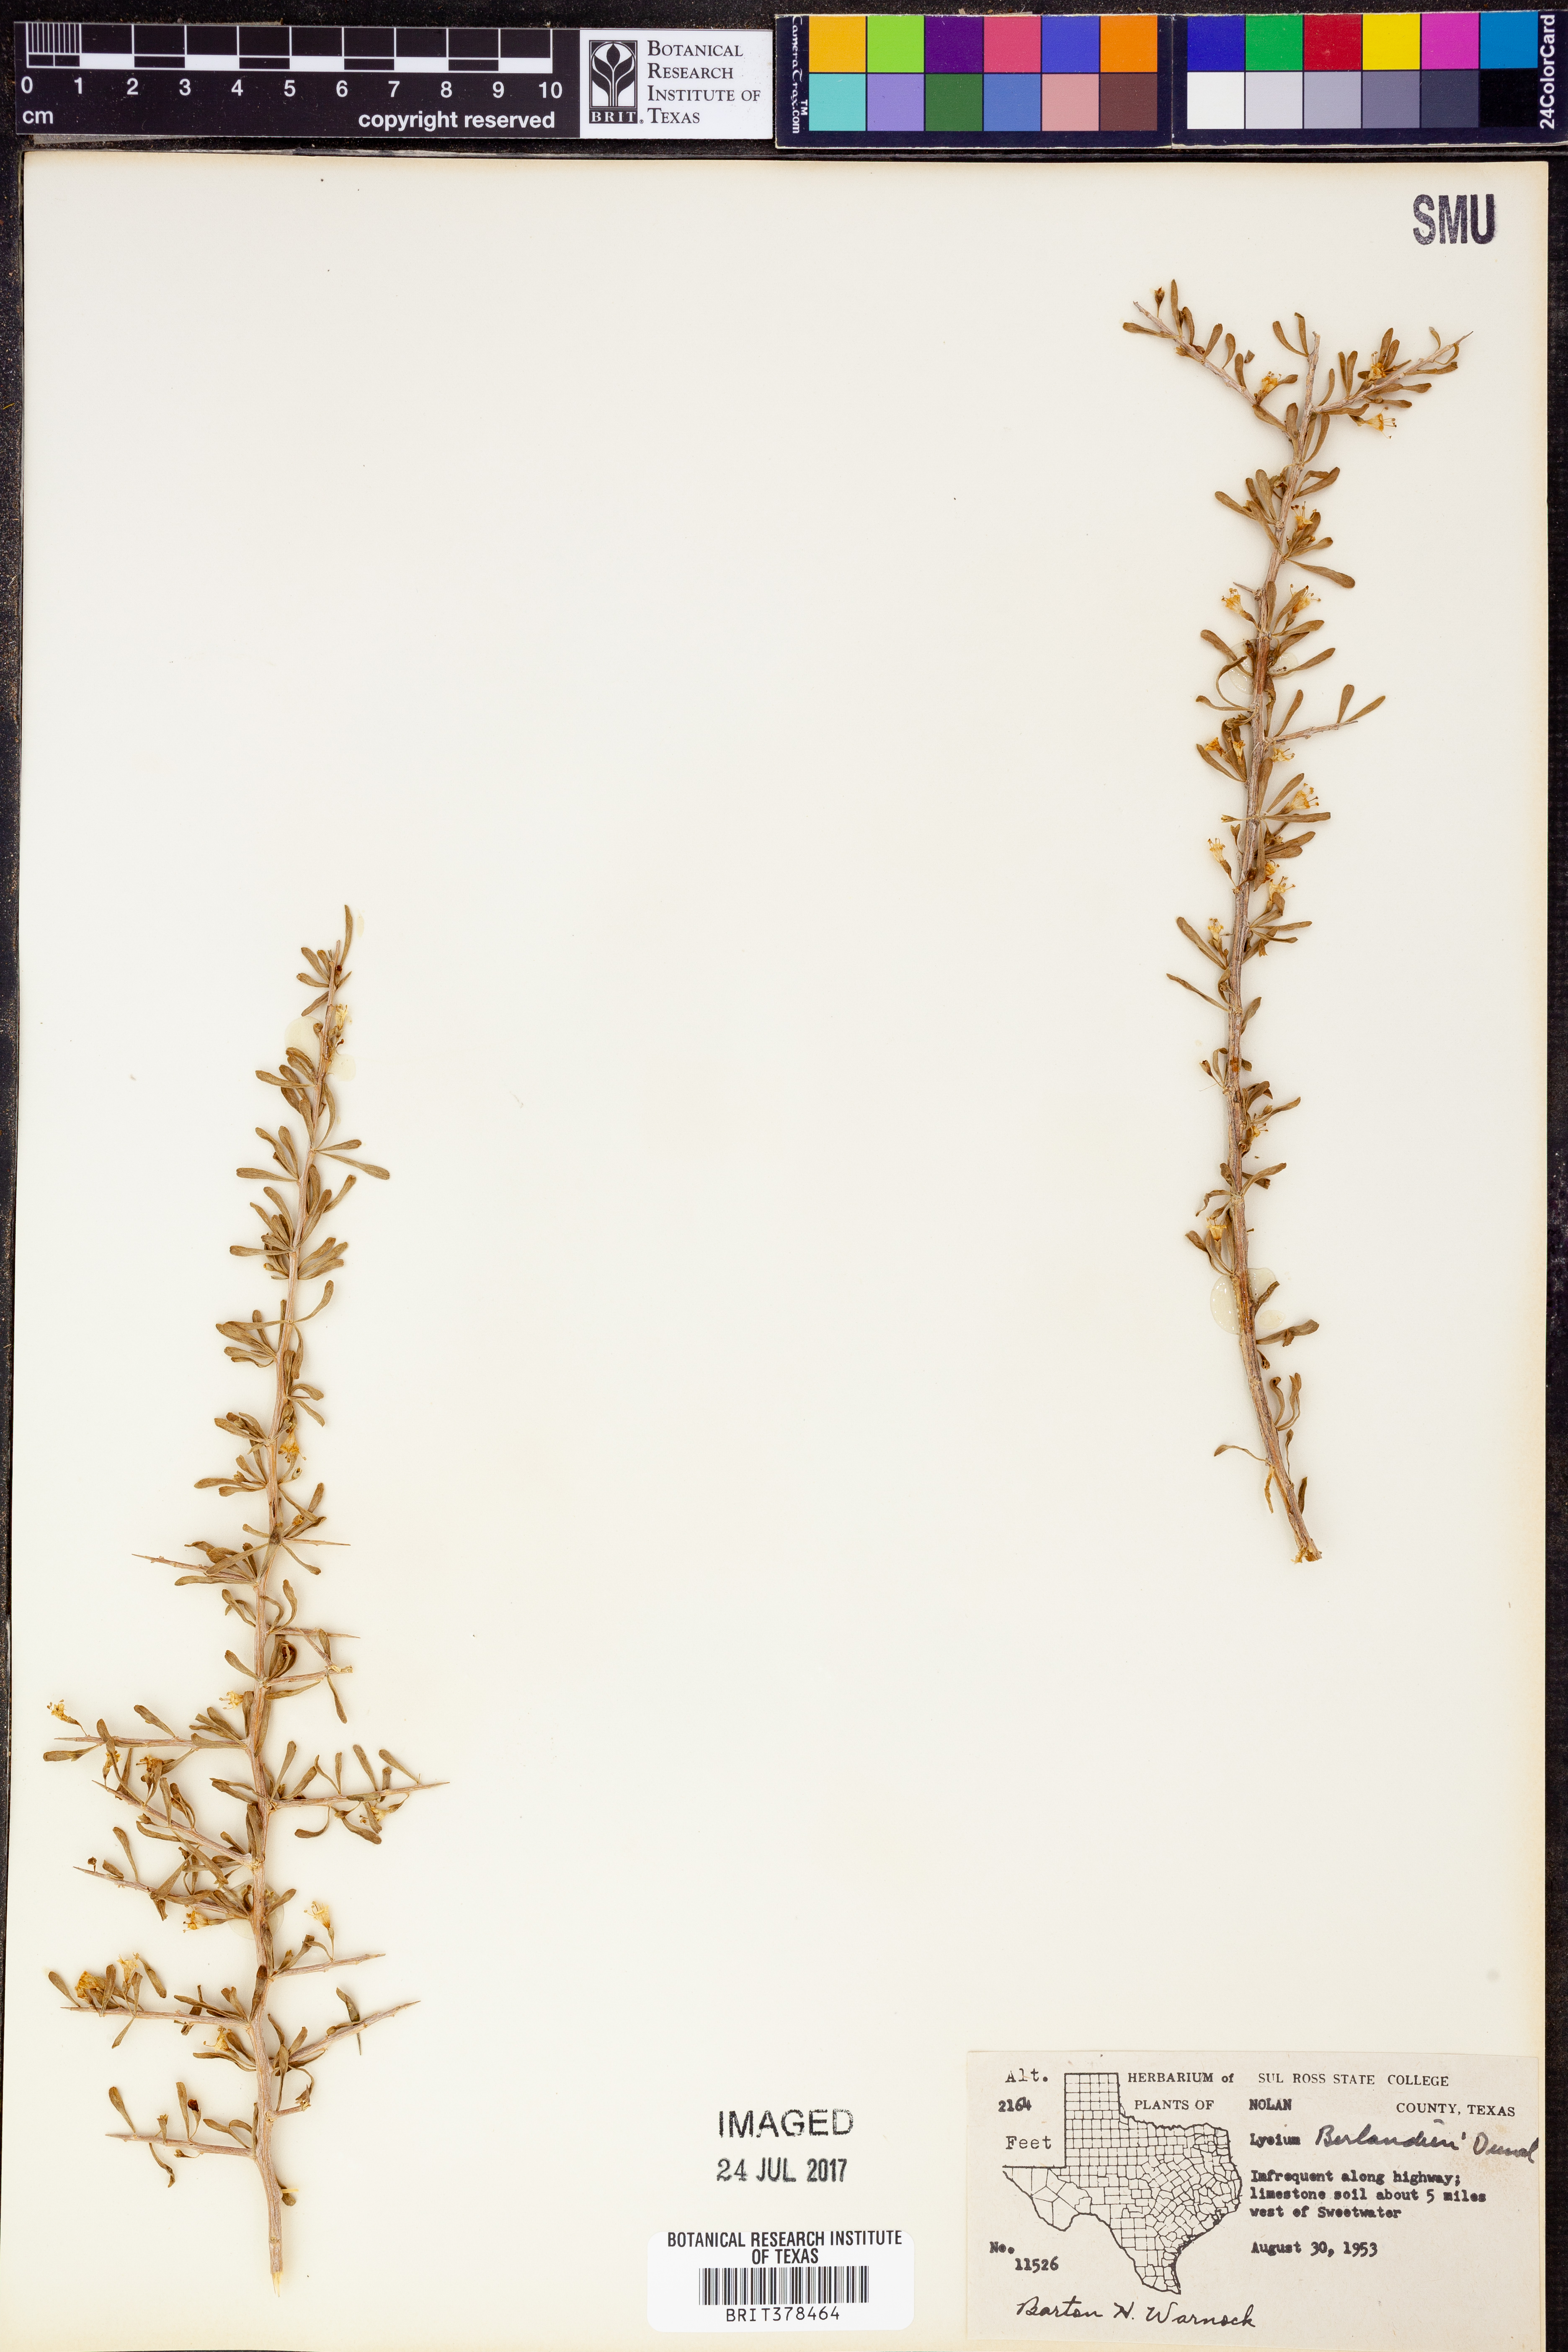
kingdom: Plantae
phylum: Tracheophyta
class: Magnoliopsida
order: Solanales
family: Solanaceae
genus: Lycium
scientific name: Lycium berlandieri
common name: Berlandier wolfberry
